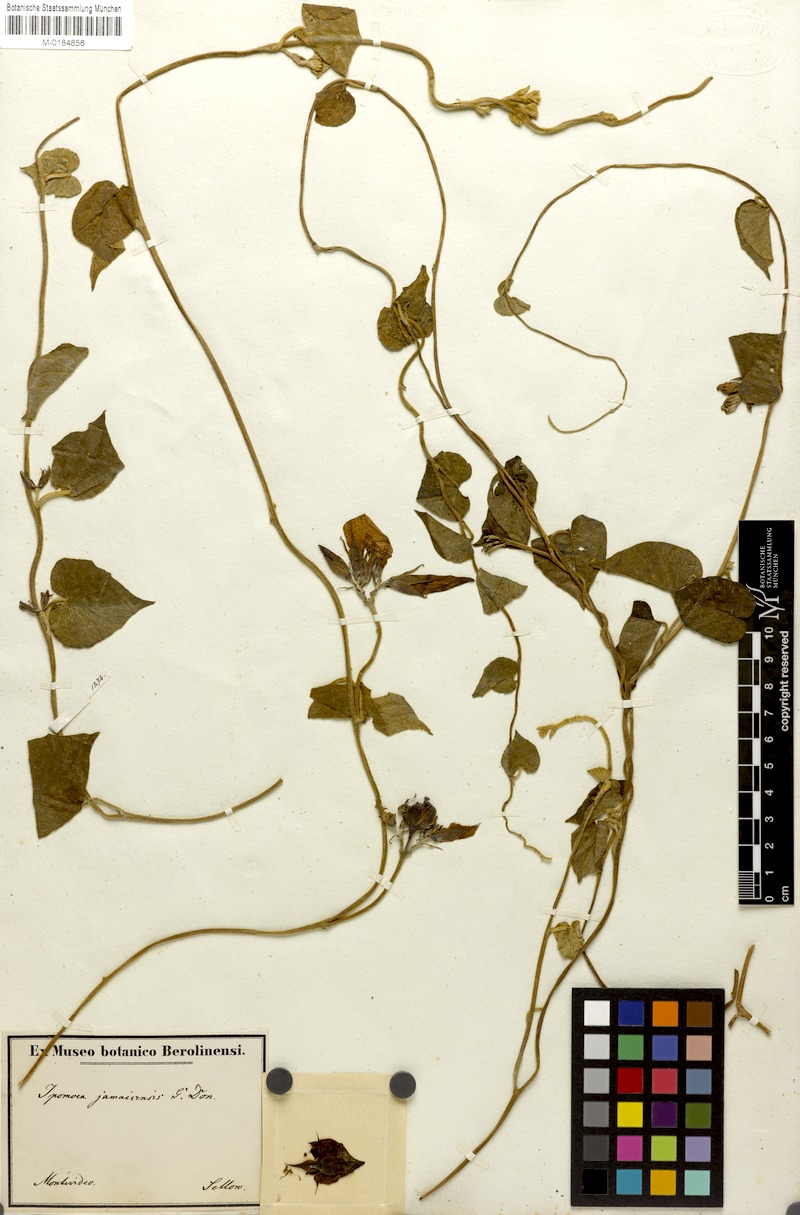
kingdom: Plantae
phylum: Tracheophyta
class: Magnoliopsida
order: Solanales
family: Convolvulaceae
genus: Ipomoea
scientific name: Ipomoea indica
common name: Blue dawnflower
